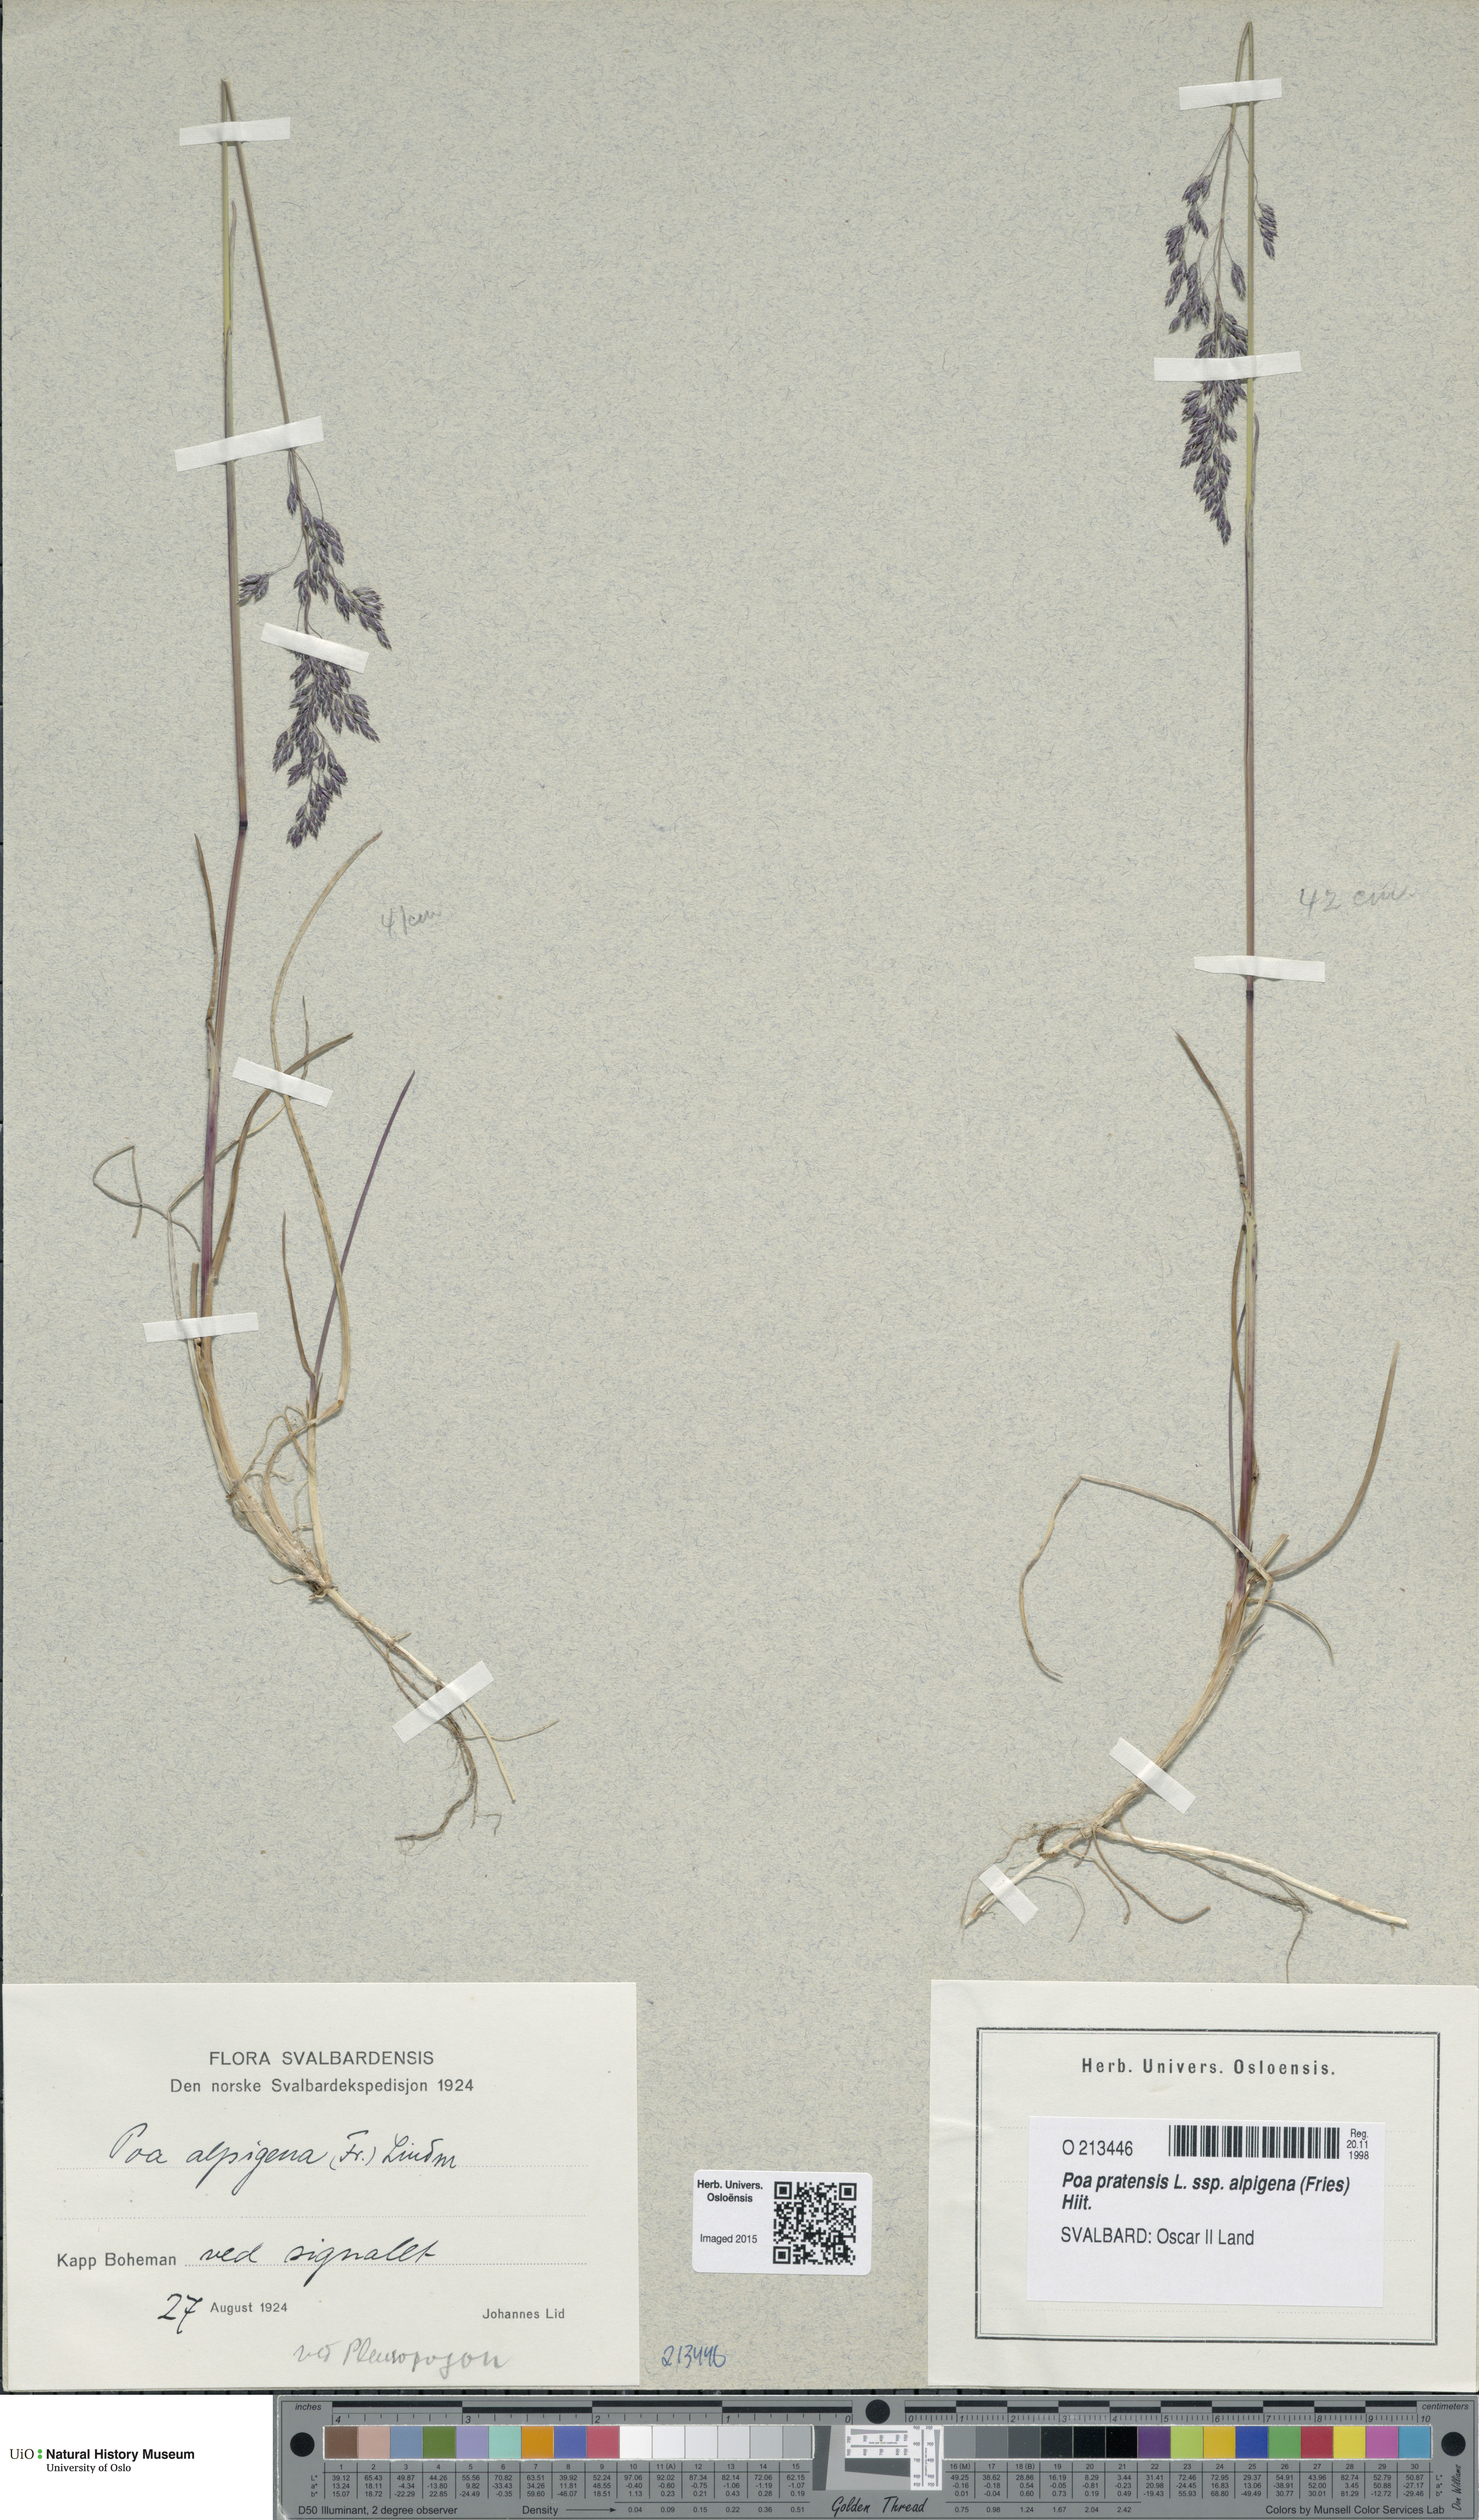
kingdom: Plantae
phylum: Tracheophyta
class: Liliopsida
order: Poales
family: Poaceae
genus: Poa
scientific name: Poa alpigena
